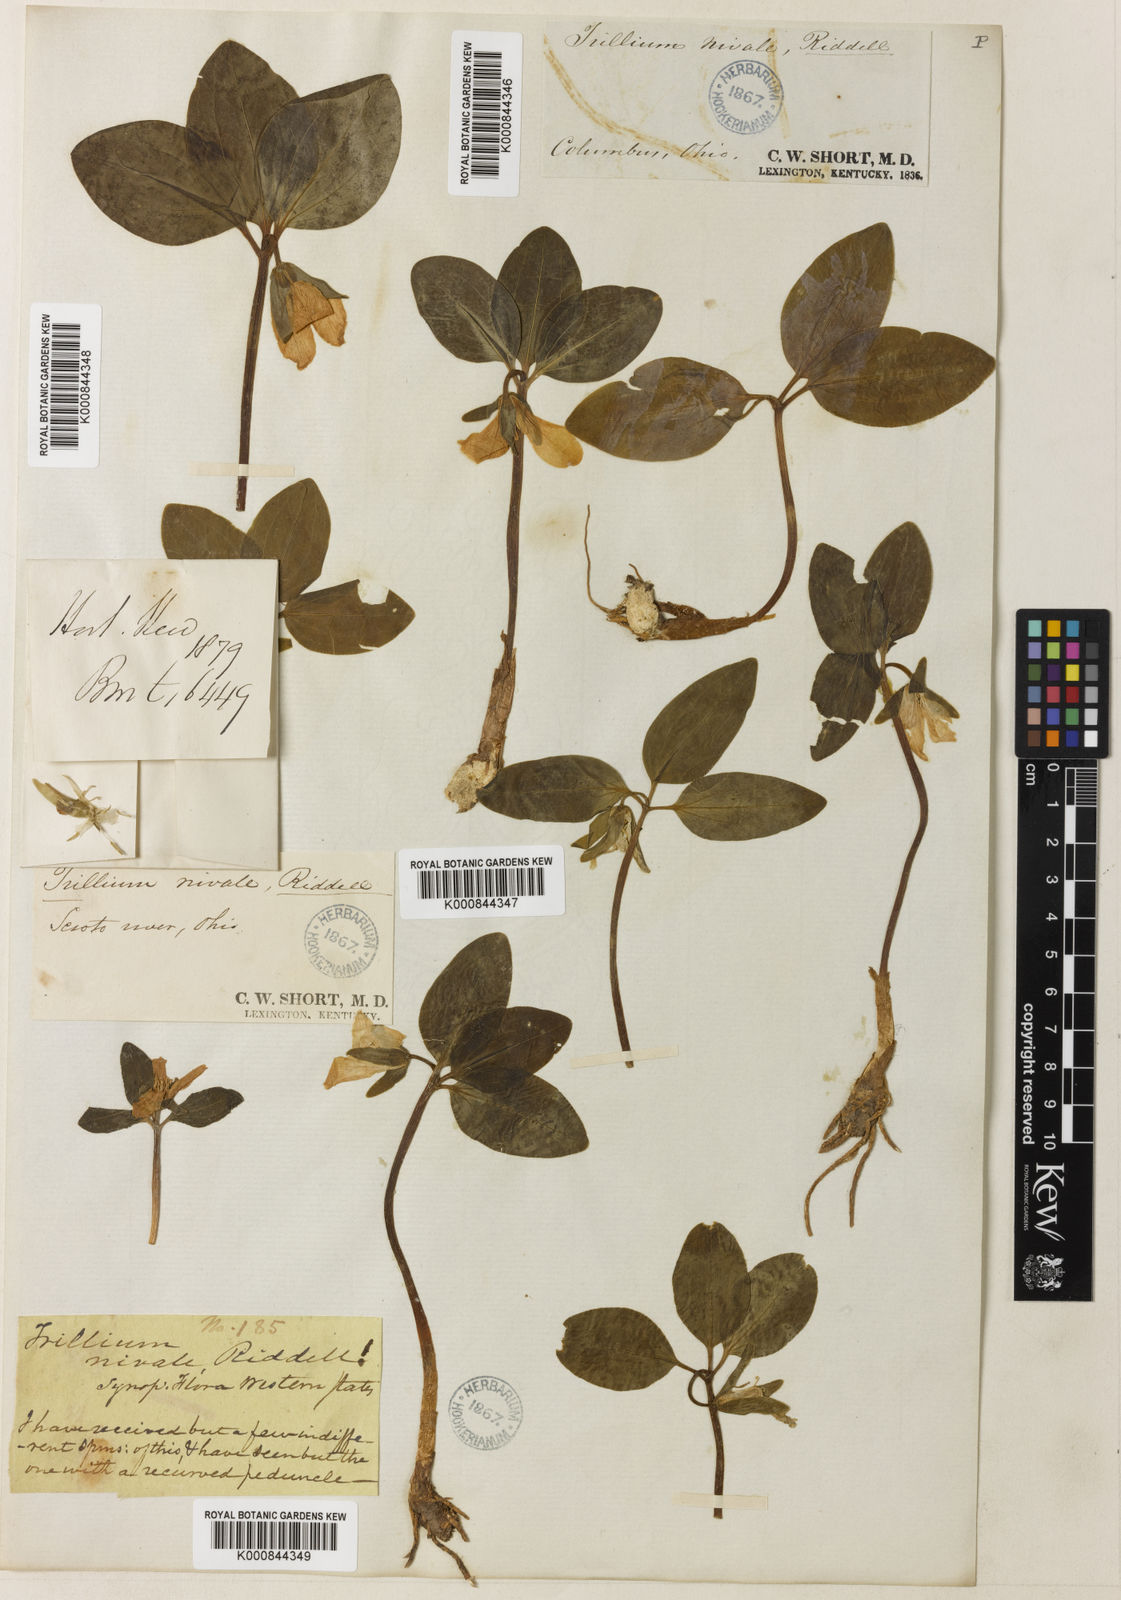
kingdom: Plantae
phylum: Tracheophyta
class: Liliopsida
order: Liliales
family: Melanthiaceae
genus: Trillium
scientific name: Trillium nivale
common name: Dwarf white trillium
